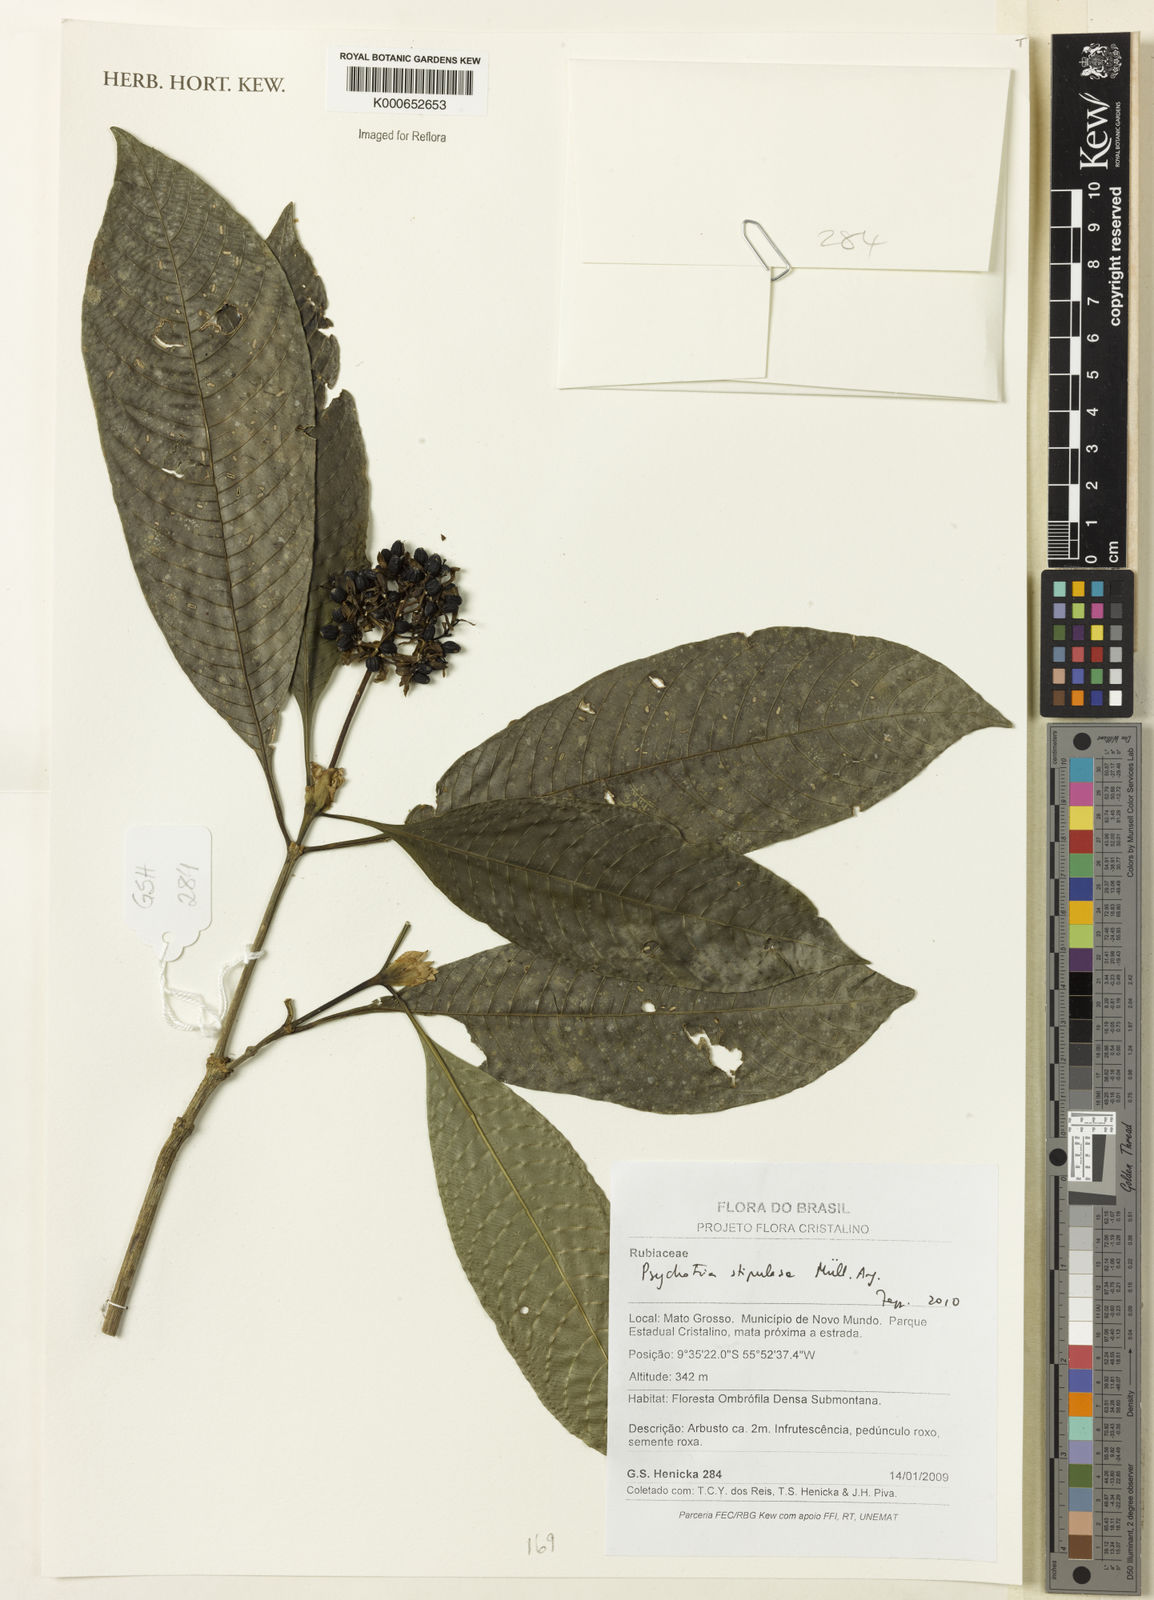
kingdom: Plantae
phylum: Tracheophyta
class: Magnoliopsida
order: Gentianales
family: Rubiaceae
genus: Psychotria
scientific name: Psychotria
